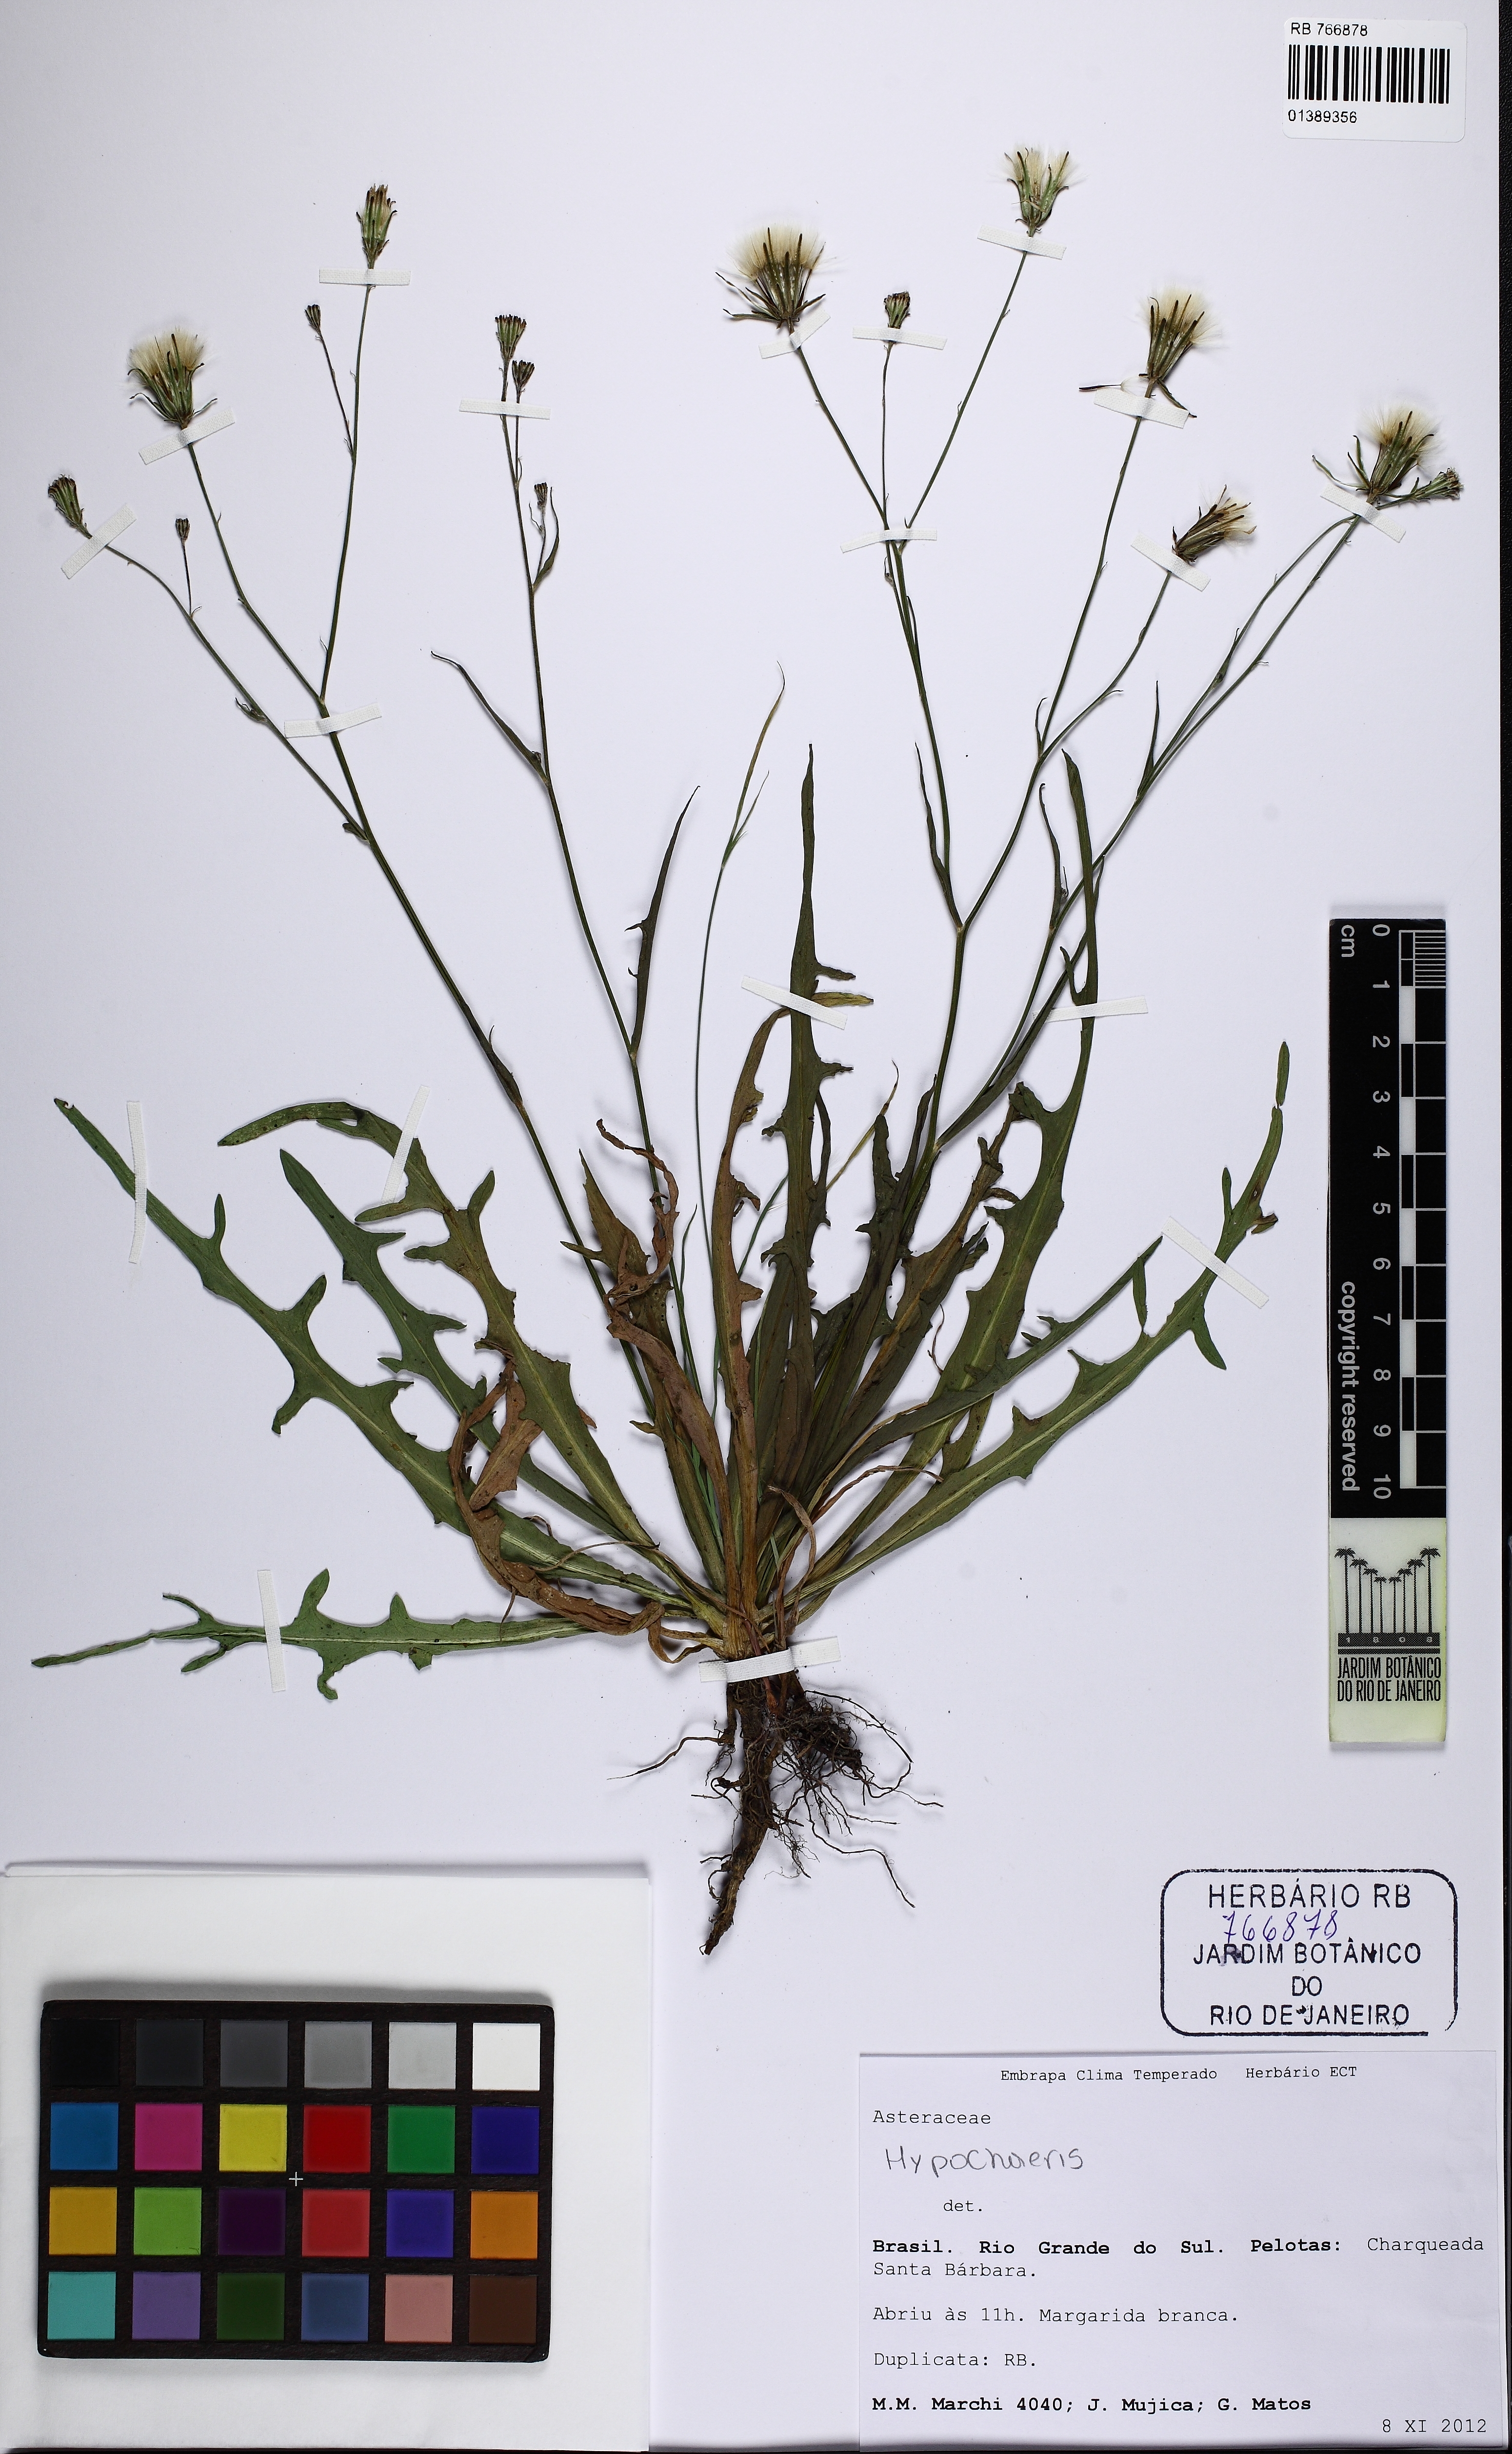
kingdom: Plantae
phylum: Tracheophyta
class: Magnoliopsida
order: Asterales
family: Asteraceae
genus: Hypochaeris
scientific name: Hypochaeris
